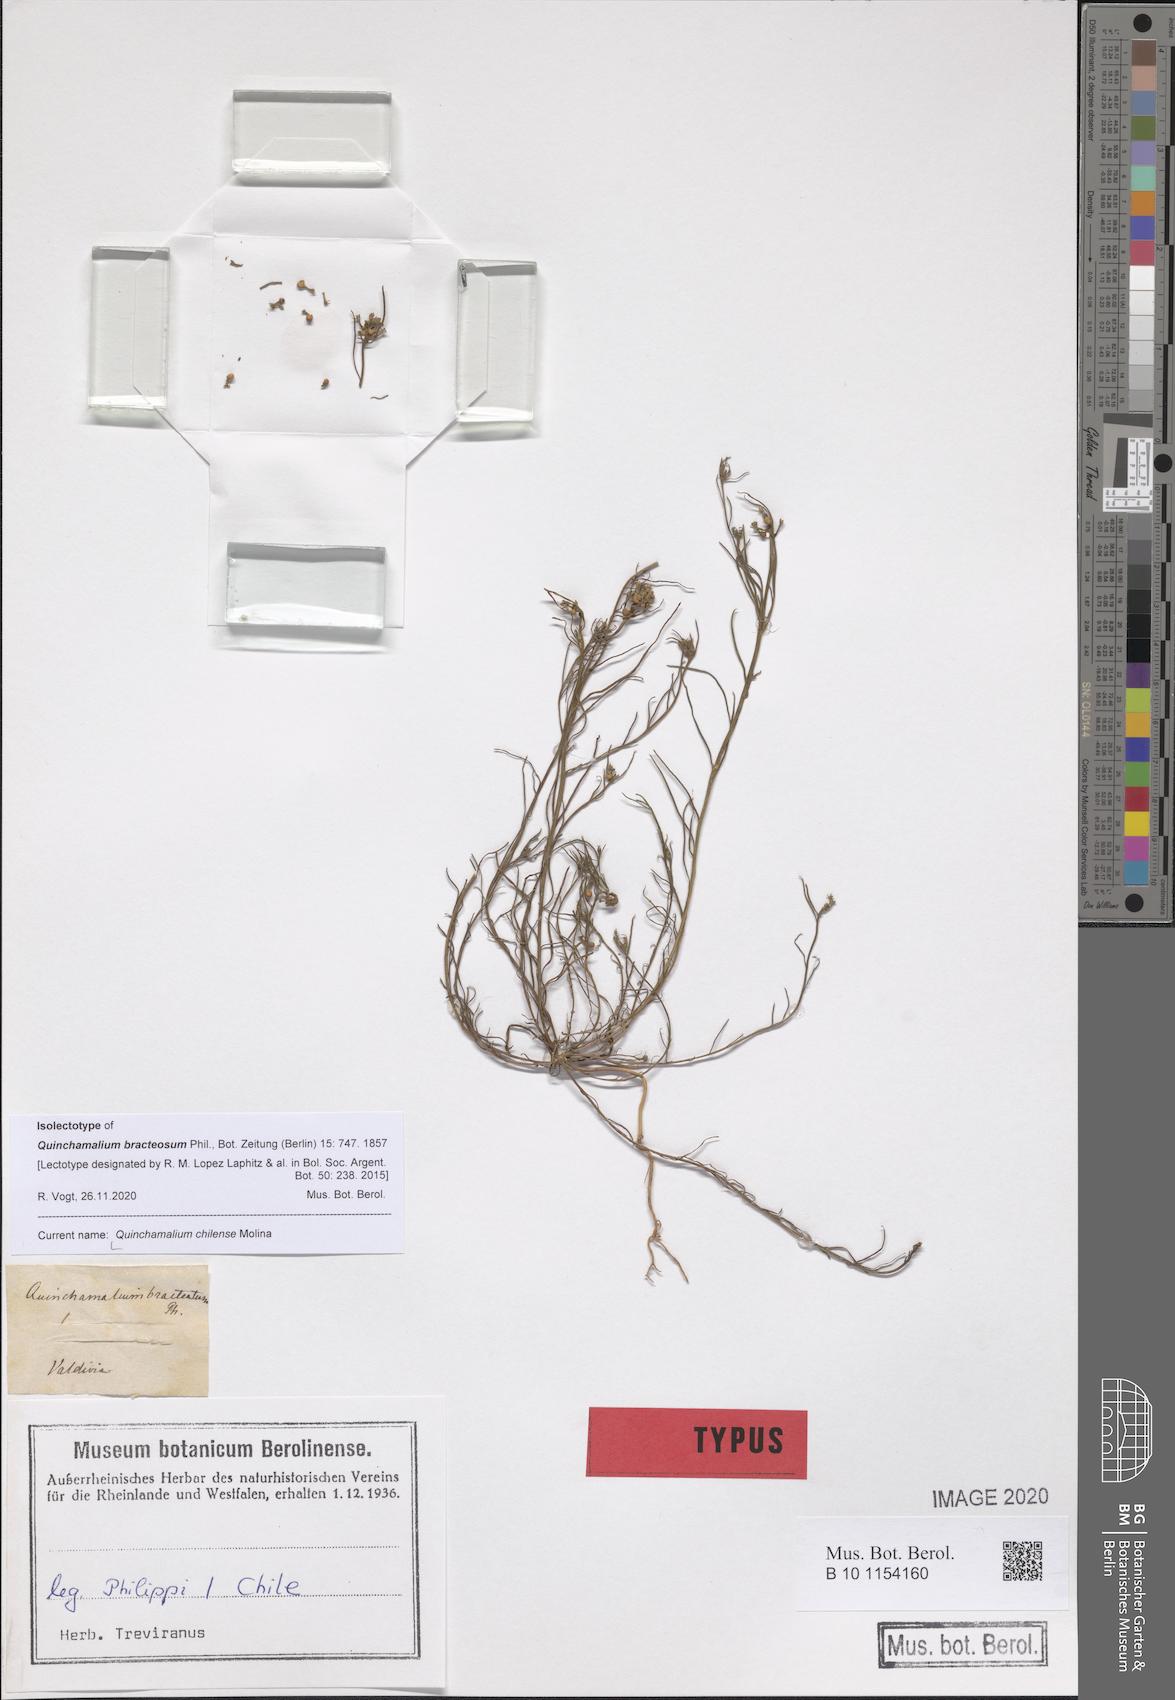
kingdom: Plantae
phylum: Tracheophyta
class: Magnoliopsida
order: Santalales
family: Schoepfiaceae
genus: Quinchamalium
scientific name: Quinchamalium chilense
